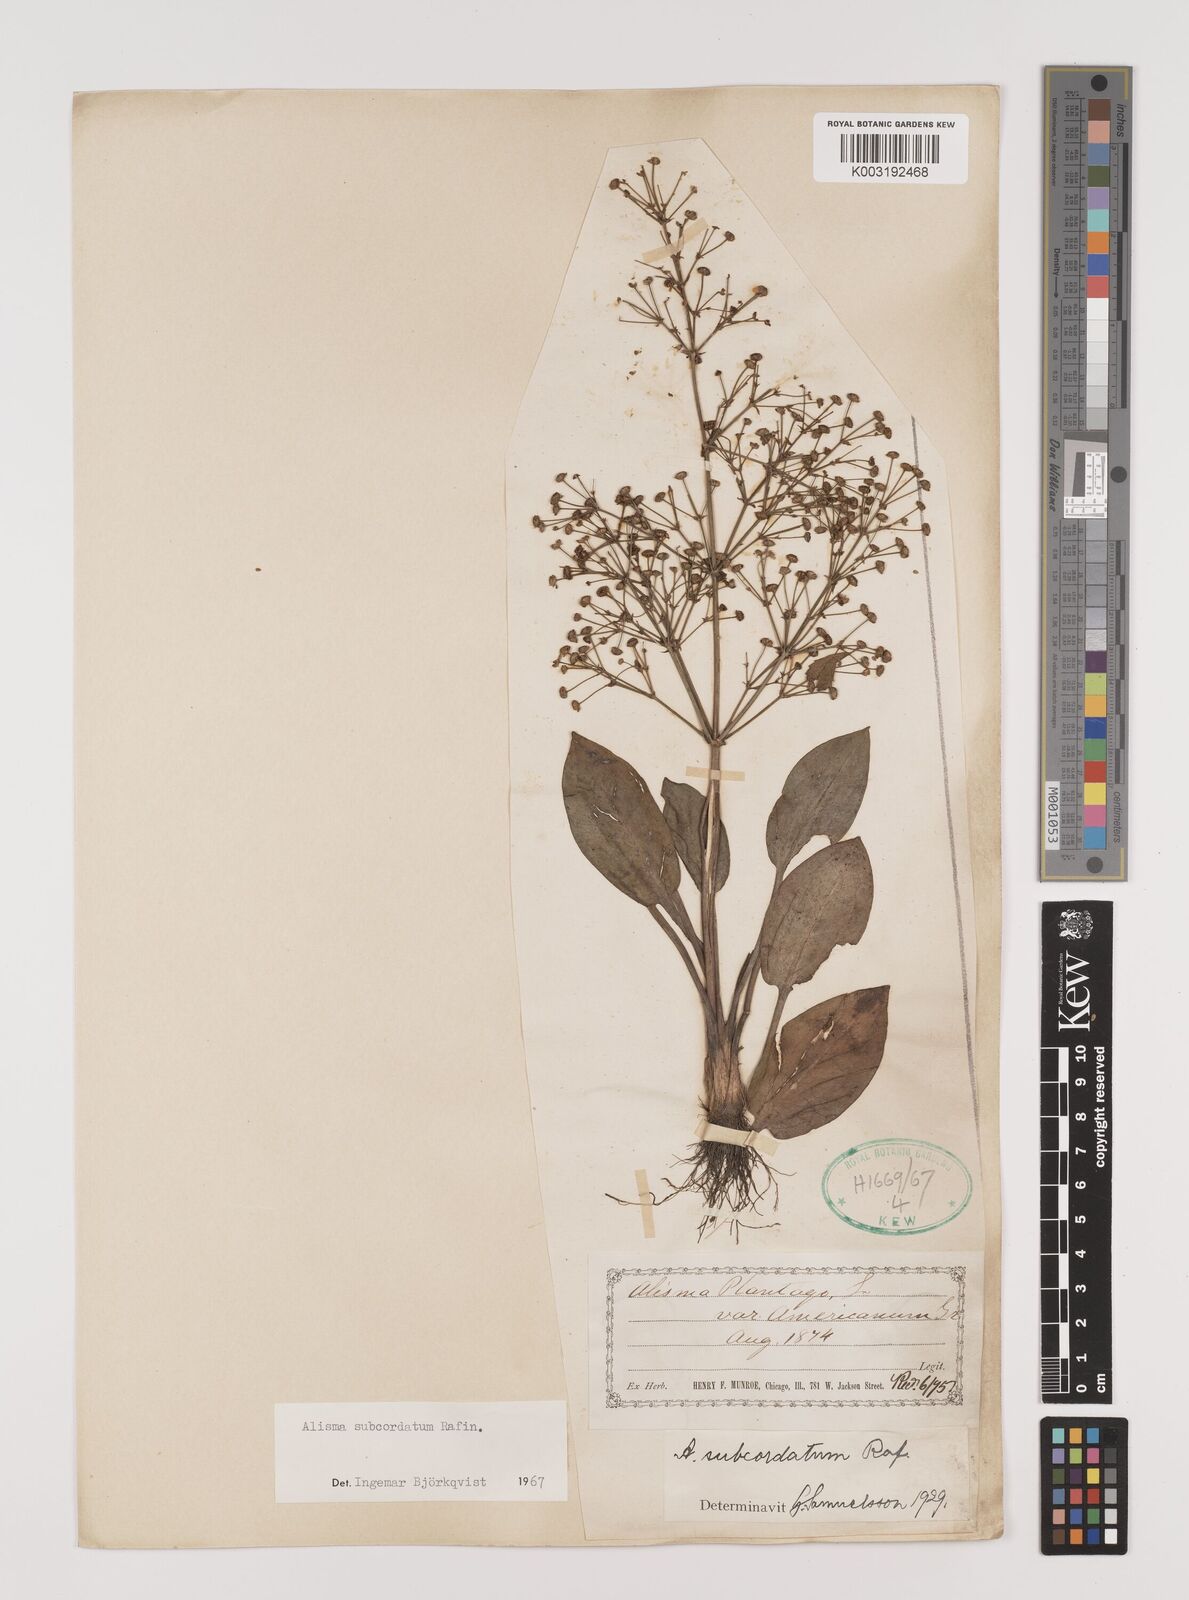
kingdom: Plantae
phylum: Tracheophyta
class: Liliopsida
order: Alismatales
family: Alismataceae
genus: Alisma
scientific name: Alisma subcordatum
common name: Southern water-plantain
